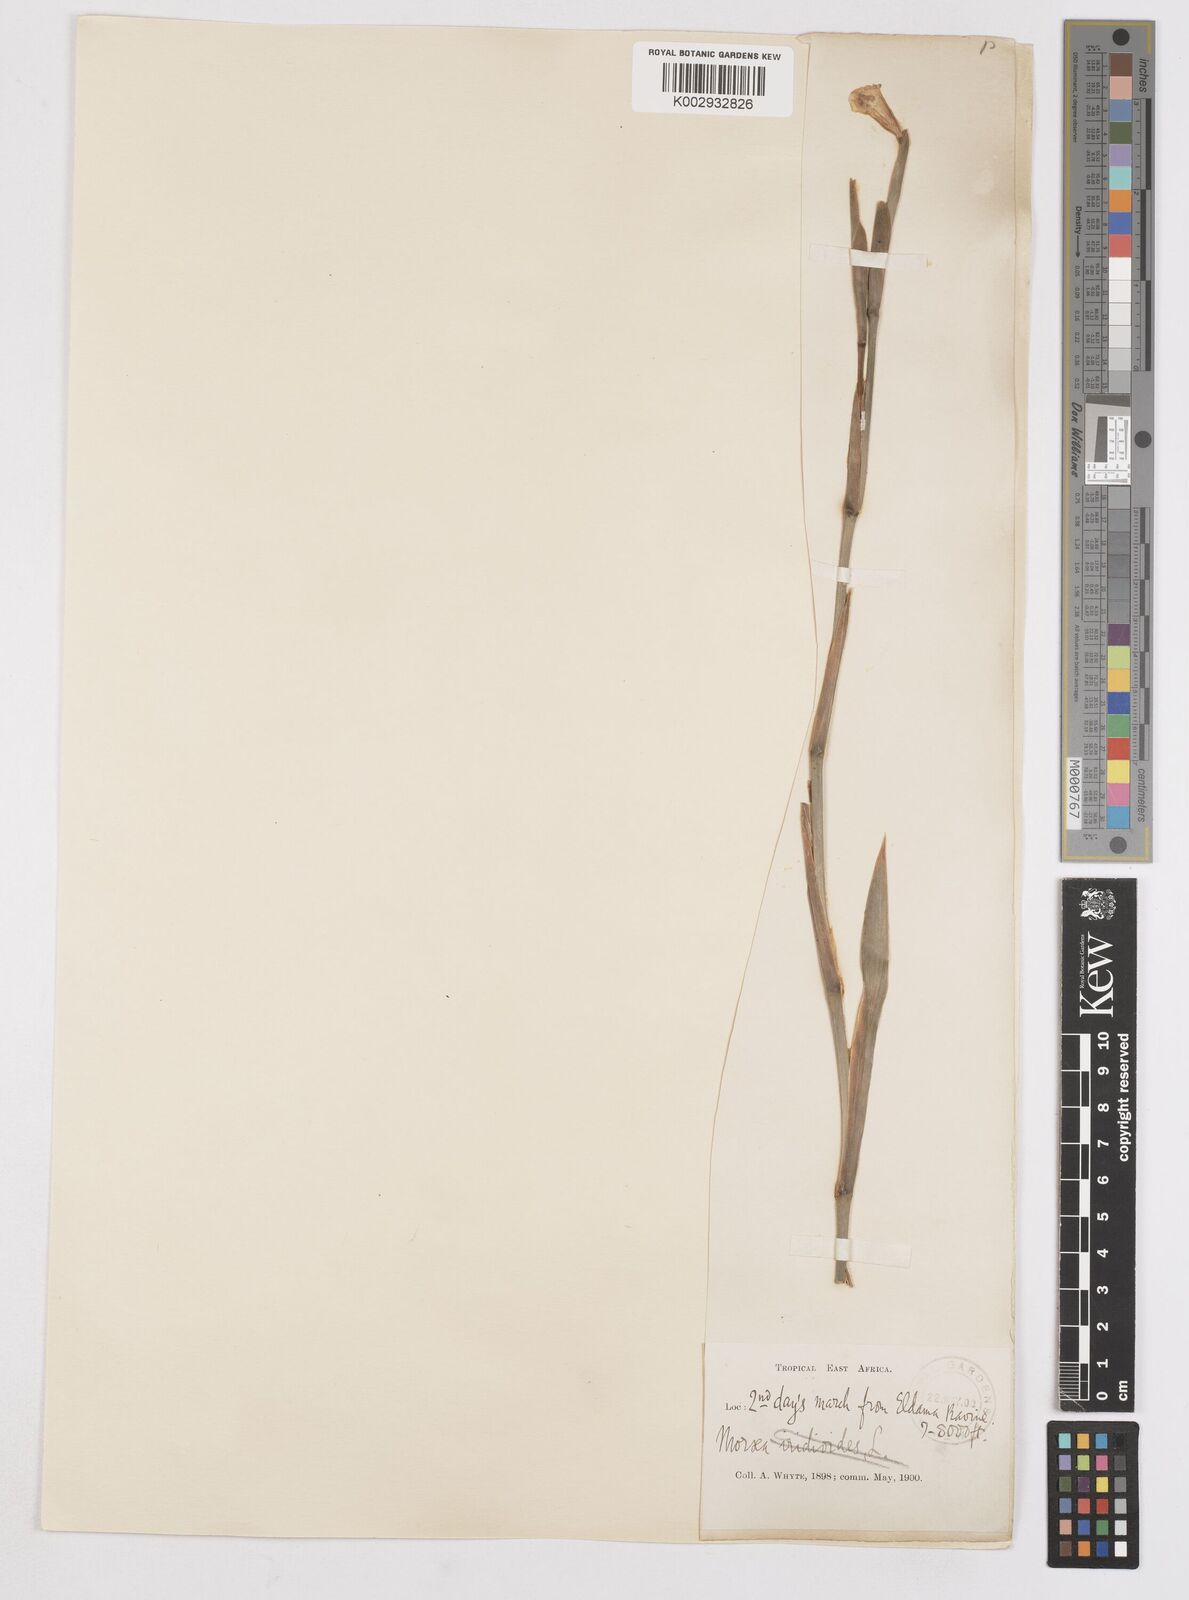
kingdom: Plantae
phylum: Tracheophyta
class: Liliopsida
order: Asparagales
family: Iridaceae
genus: Dietes
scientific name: Dietes iridioides
